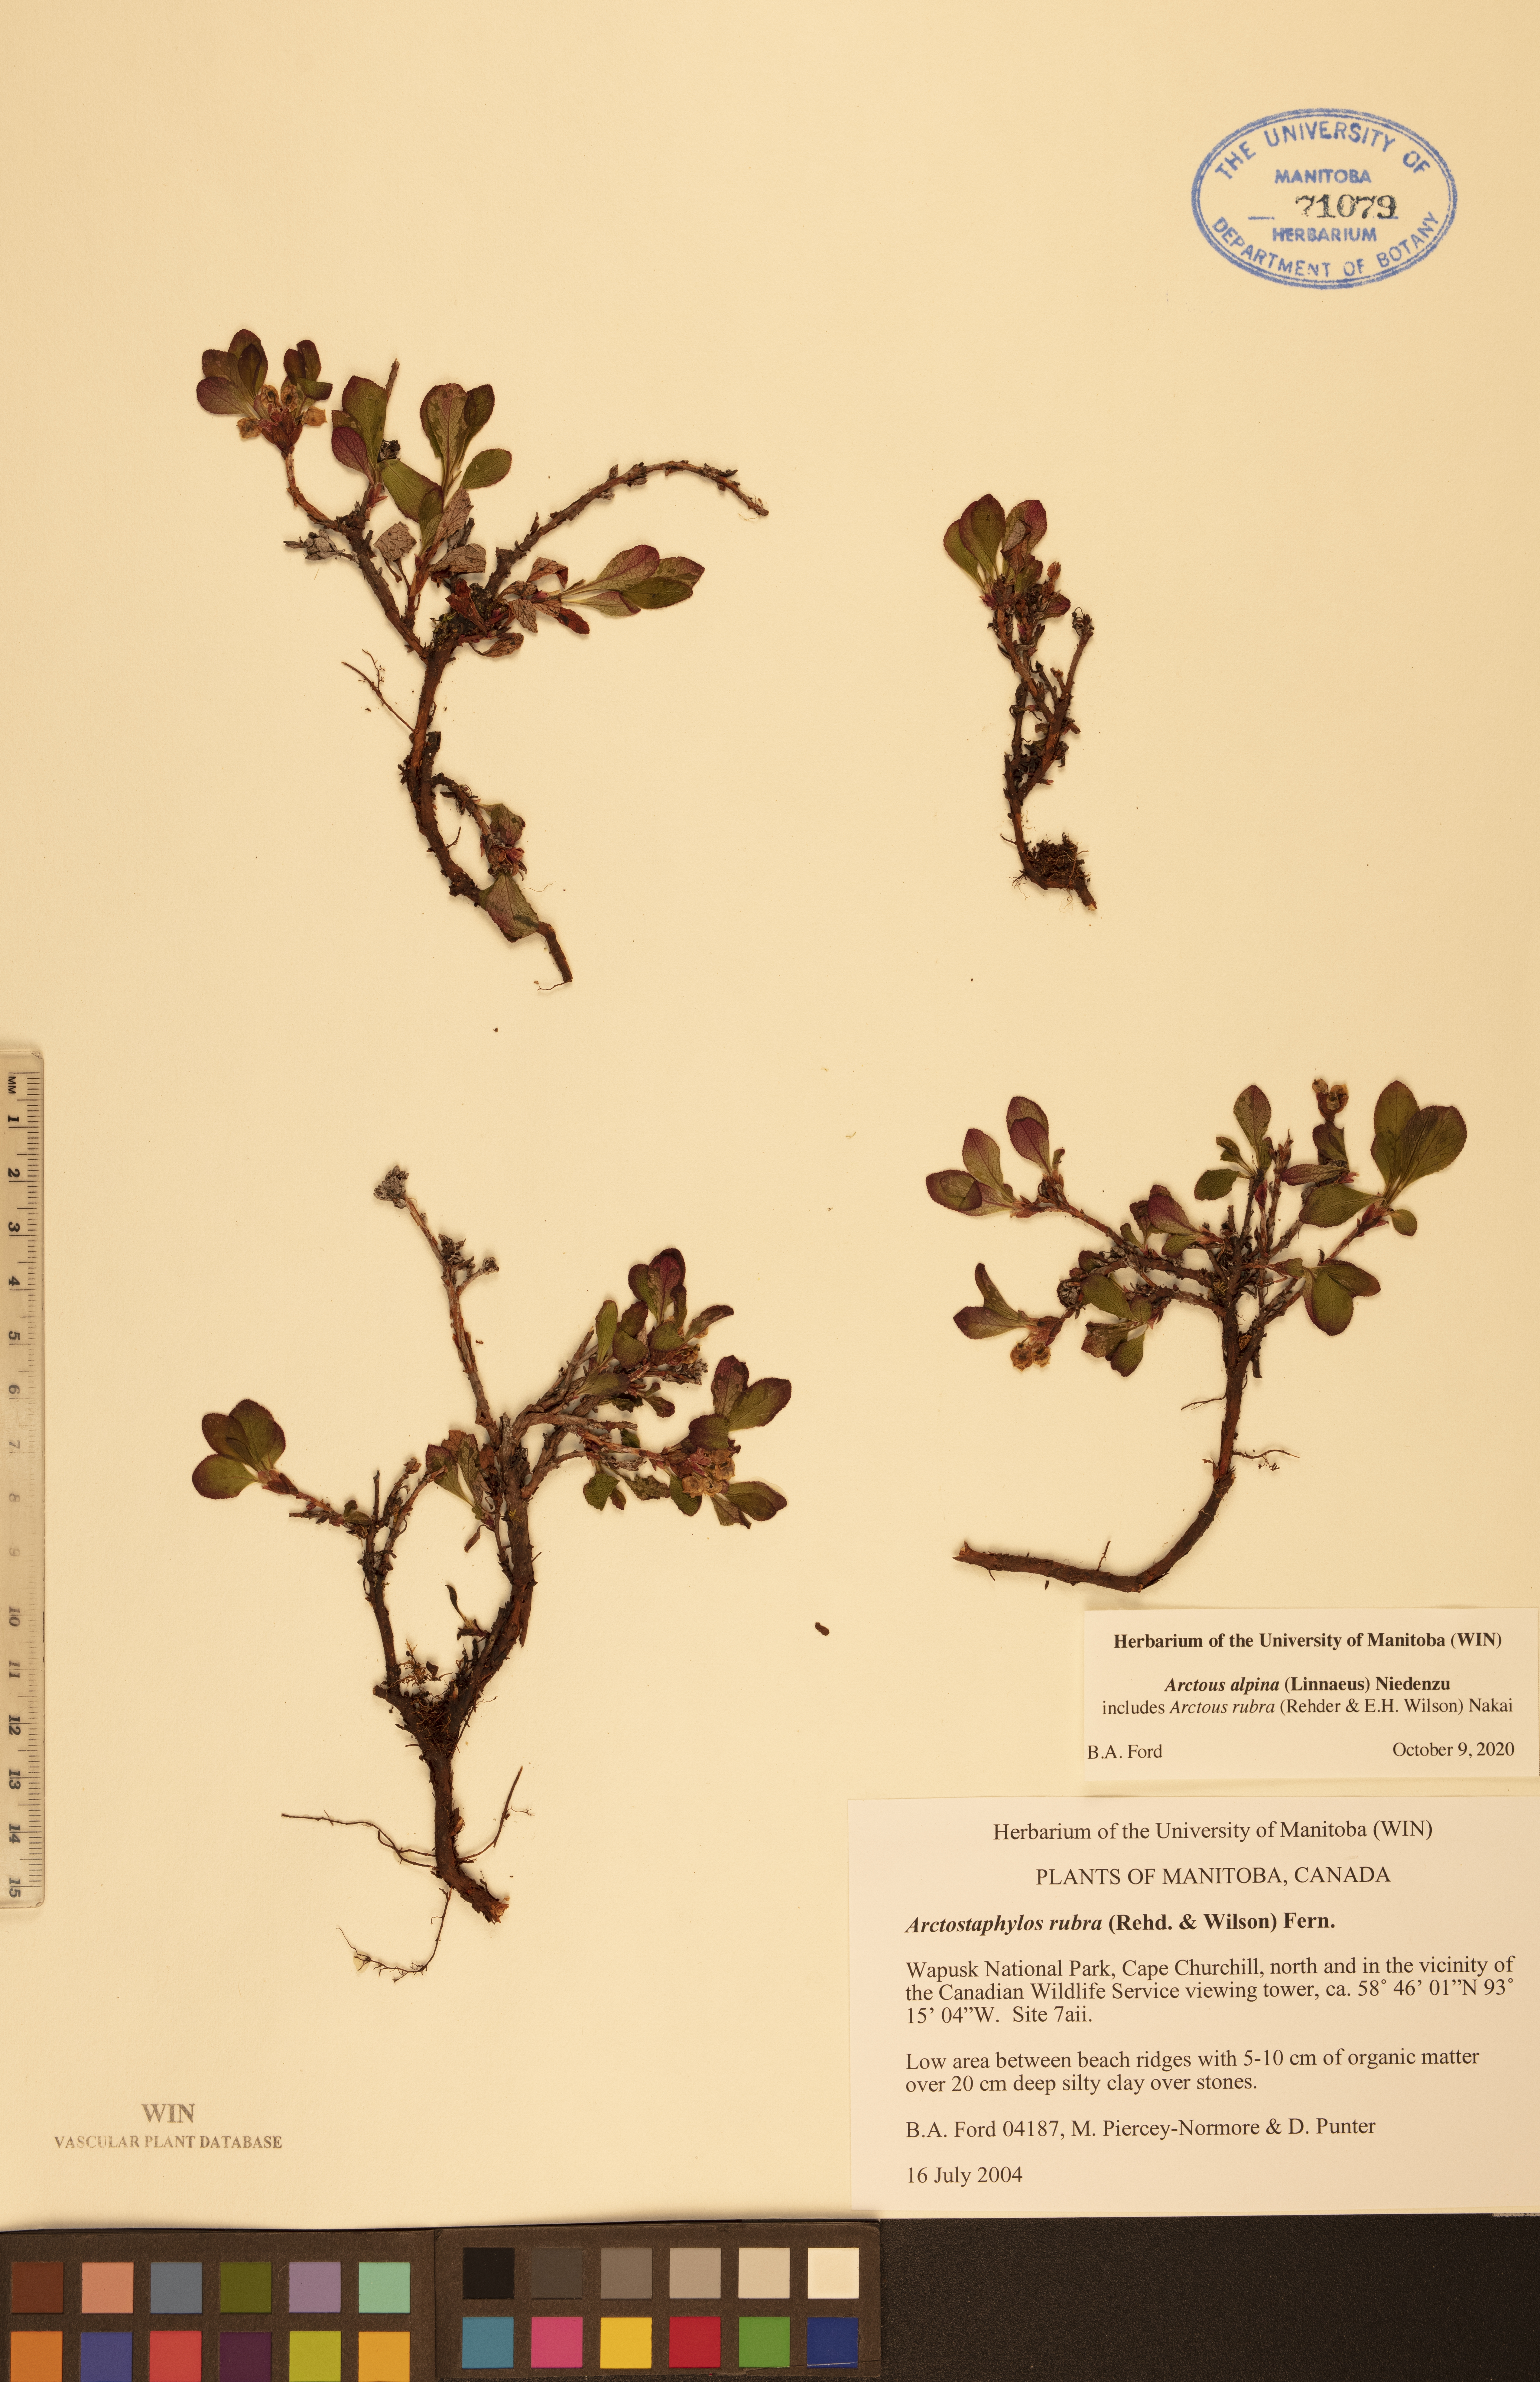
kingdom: Plantae
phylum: Tracheophyta
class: Magnoliopsida
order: Ericales
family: Ericaceae
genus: Arctostaphylos
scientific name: Arctostaphylos alpinus
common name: Alpine bearberry
